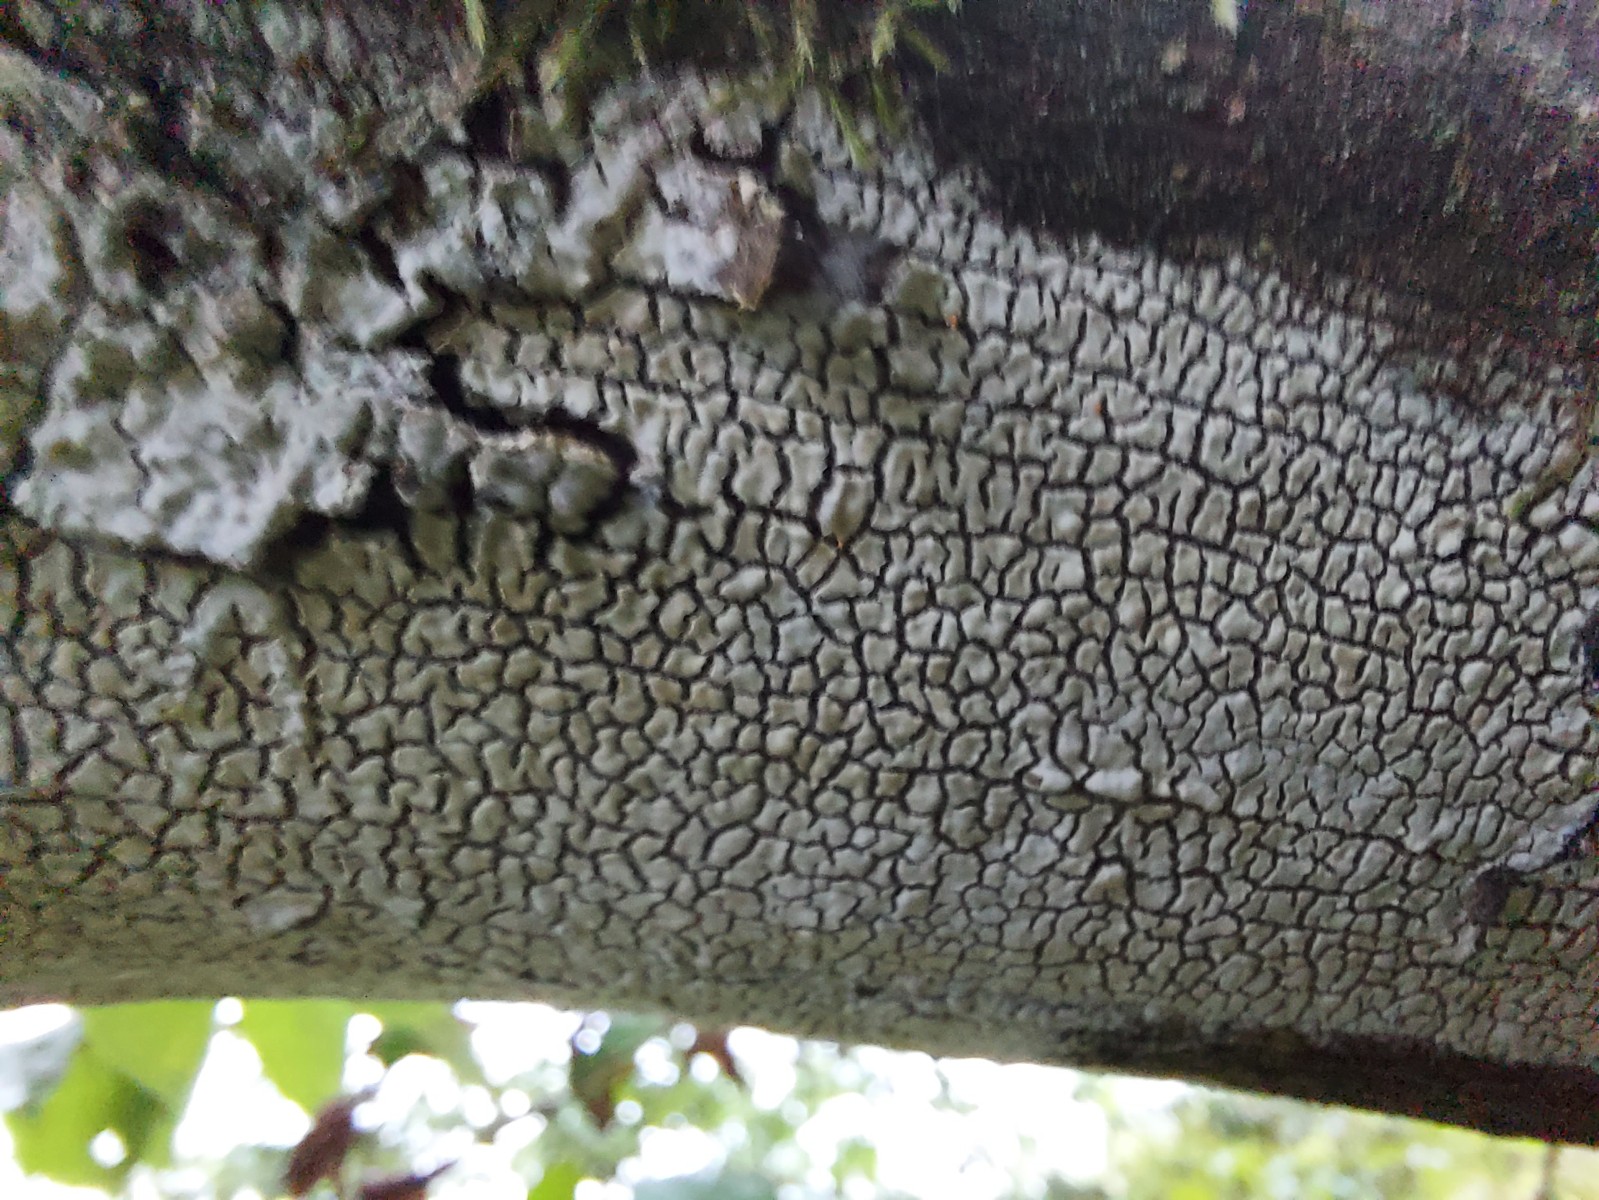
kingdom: Fungi
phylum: Basidiomycota
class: Agaricomycetes
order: Corticiales
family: Corticiaceae
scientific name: Corticiaceae
